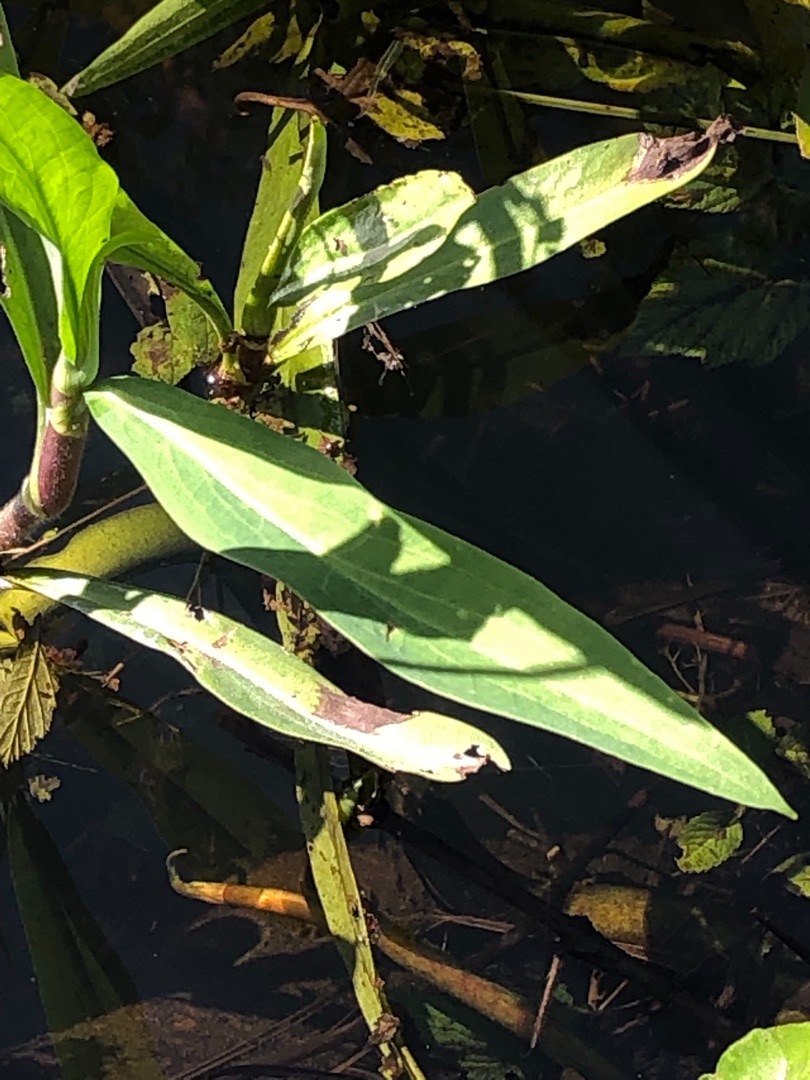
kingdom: Plantae
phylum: Tracheophyta
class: Magnoliopsida
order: Ranunculales
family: Ranunculaceae
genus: Ranunculus
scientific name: Ranunculus lingua
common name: Langbladet ranunkel
